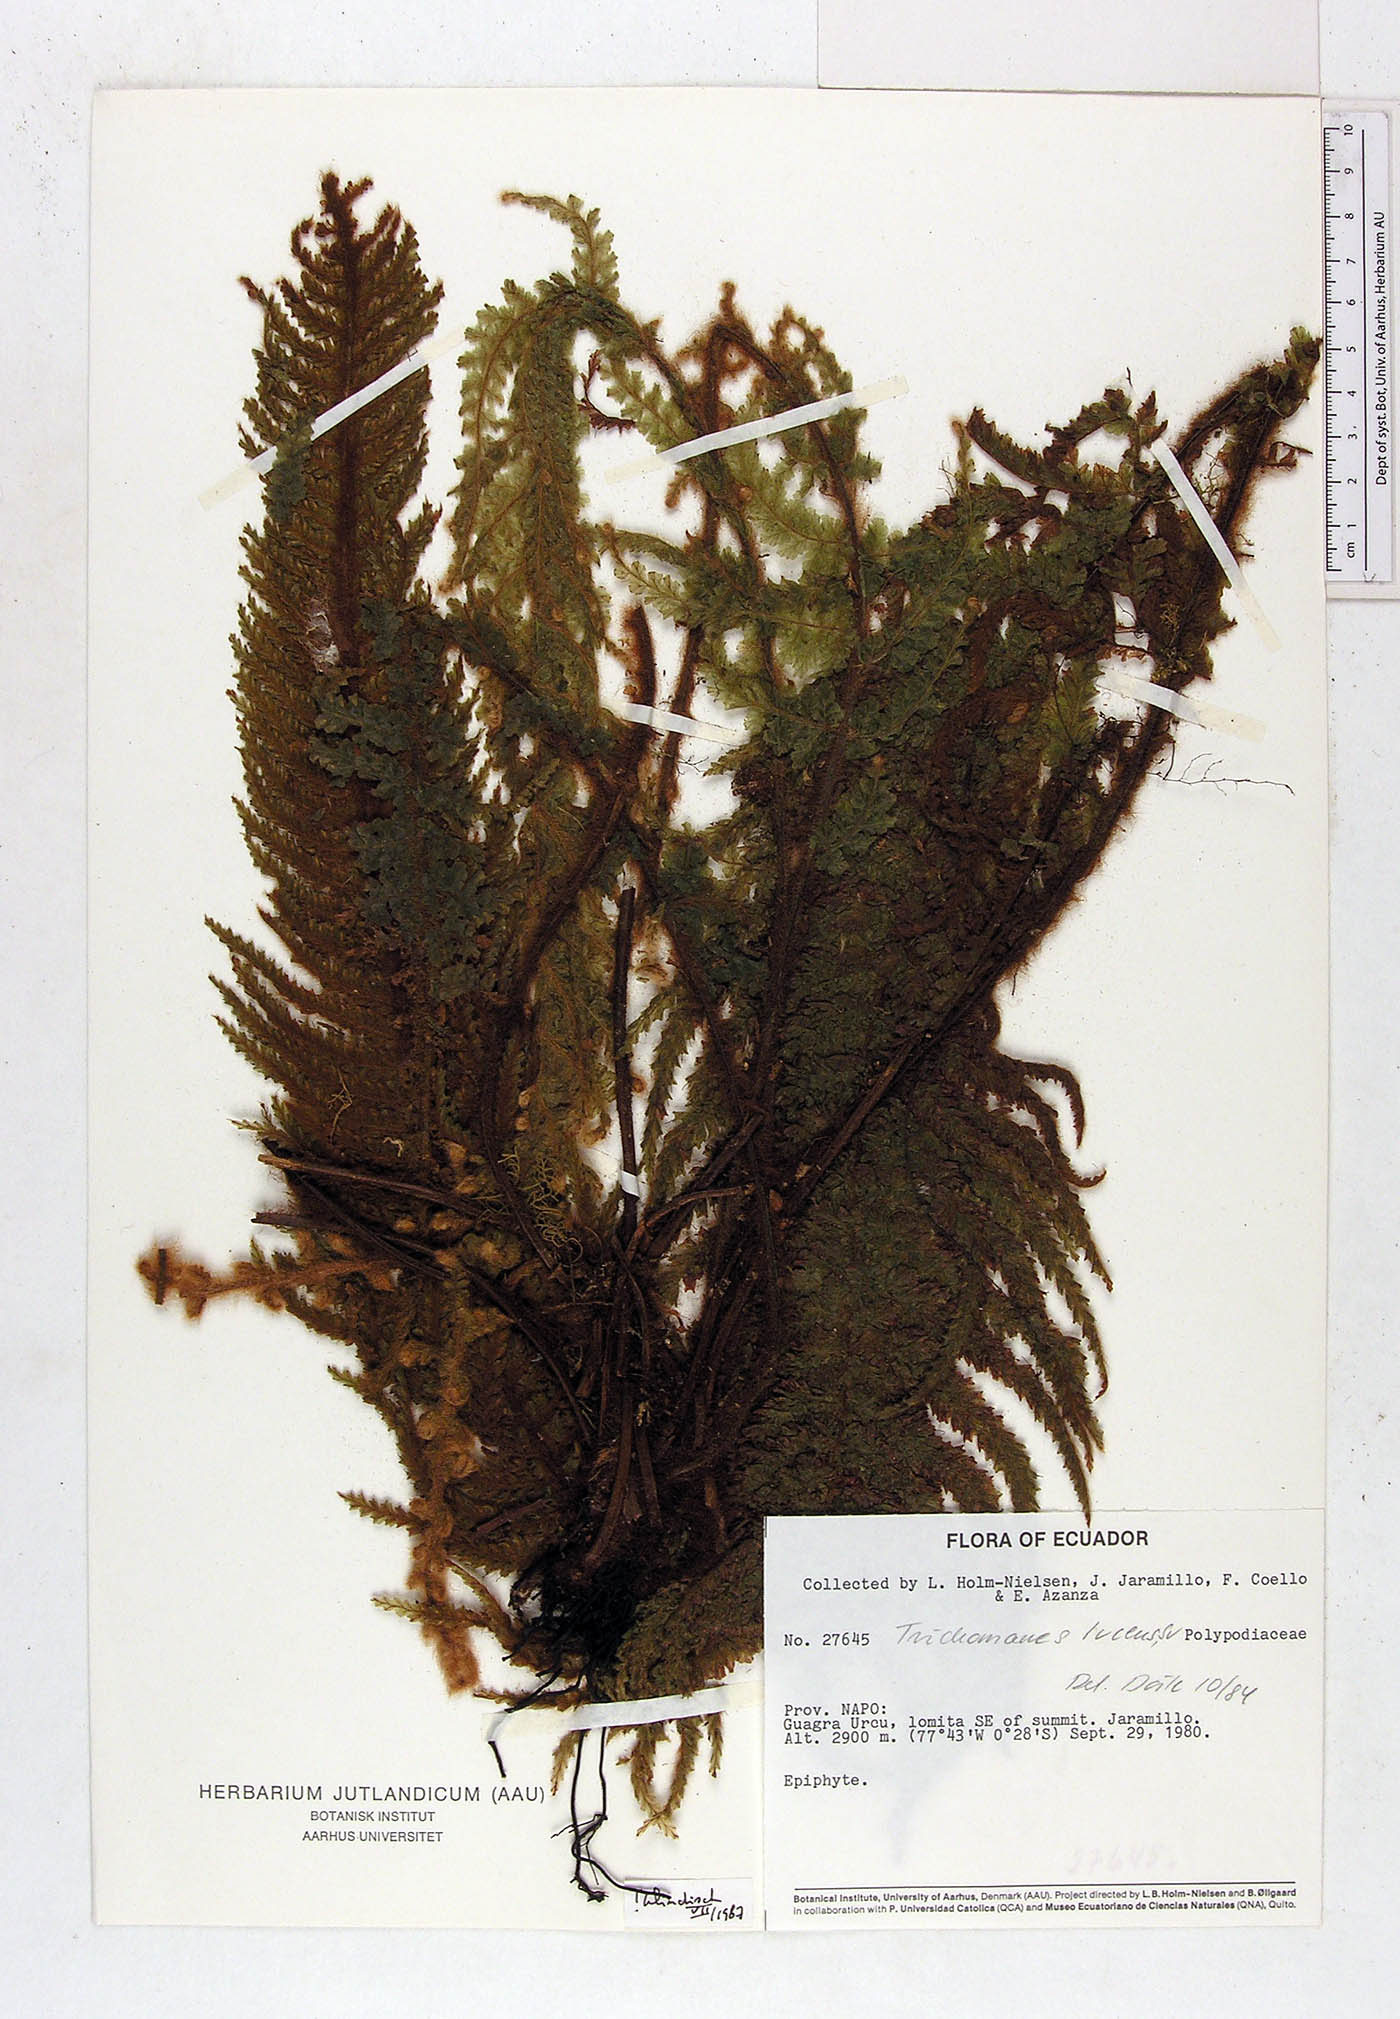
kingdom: Plantae
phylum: Tracheophyta
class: Polypodiopsida
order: Hymenophyllales
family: Hymenophyllaceae
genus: Trichomanes
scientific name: Trichomanes lucens
